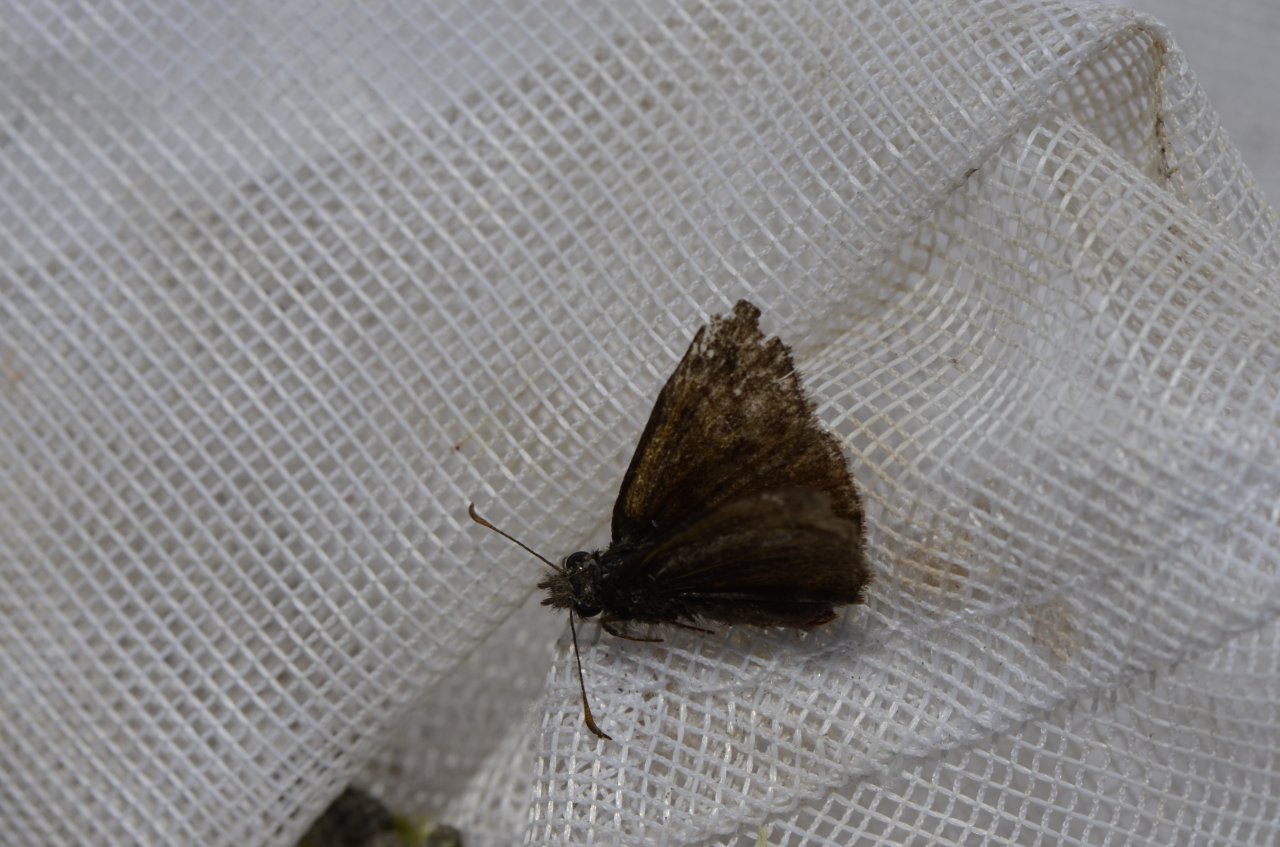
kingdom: Animalia
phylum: Arthropoda
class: Insecta
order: Lepidoptera
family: Hesperiidae
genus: Erynnis
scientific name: Erynnis icelus
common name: Dreamy Duskywing
